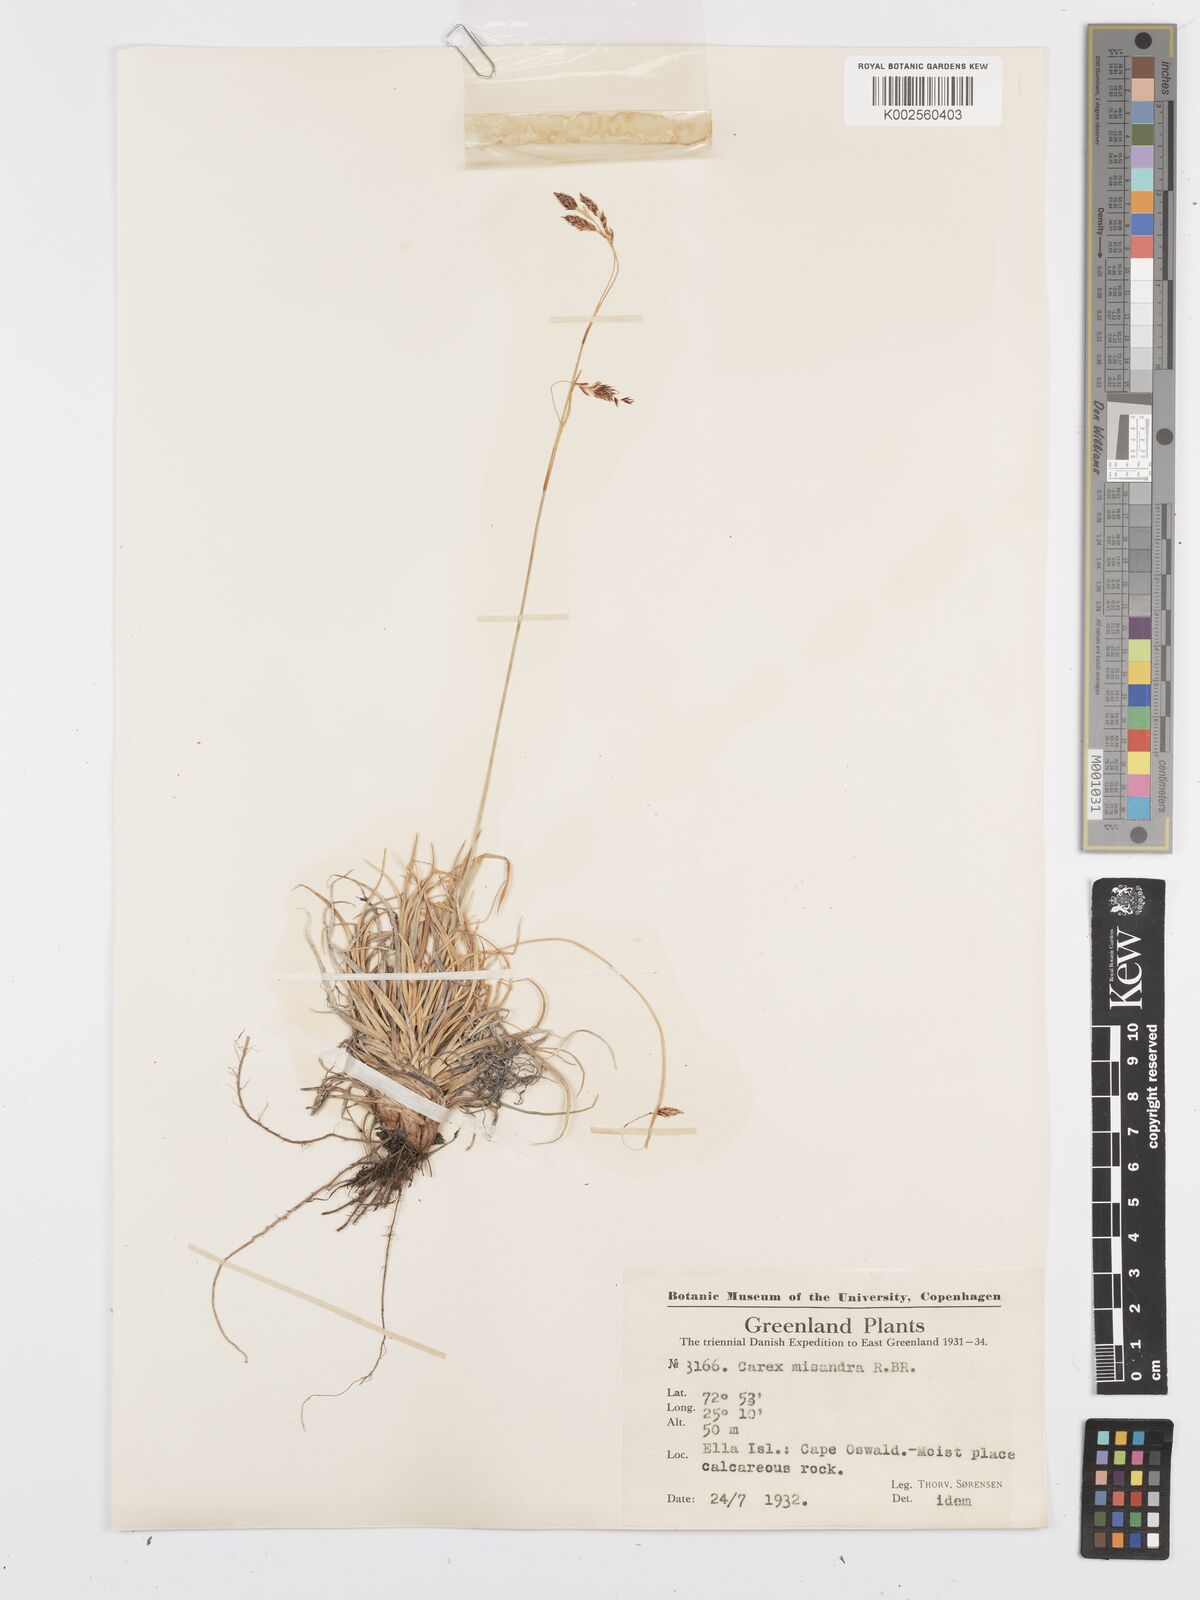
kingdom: Plantae
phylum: Tracheophyta
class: Liliopsida
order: Poales
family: Cyperaceae
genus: Carex
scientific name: Carex fuliginosa
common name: Few-flowered sedge
